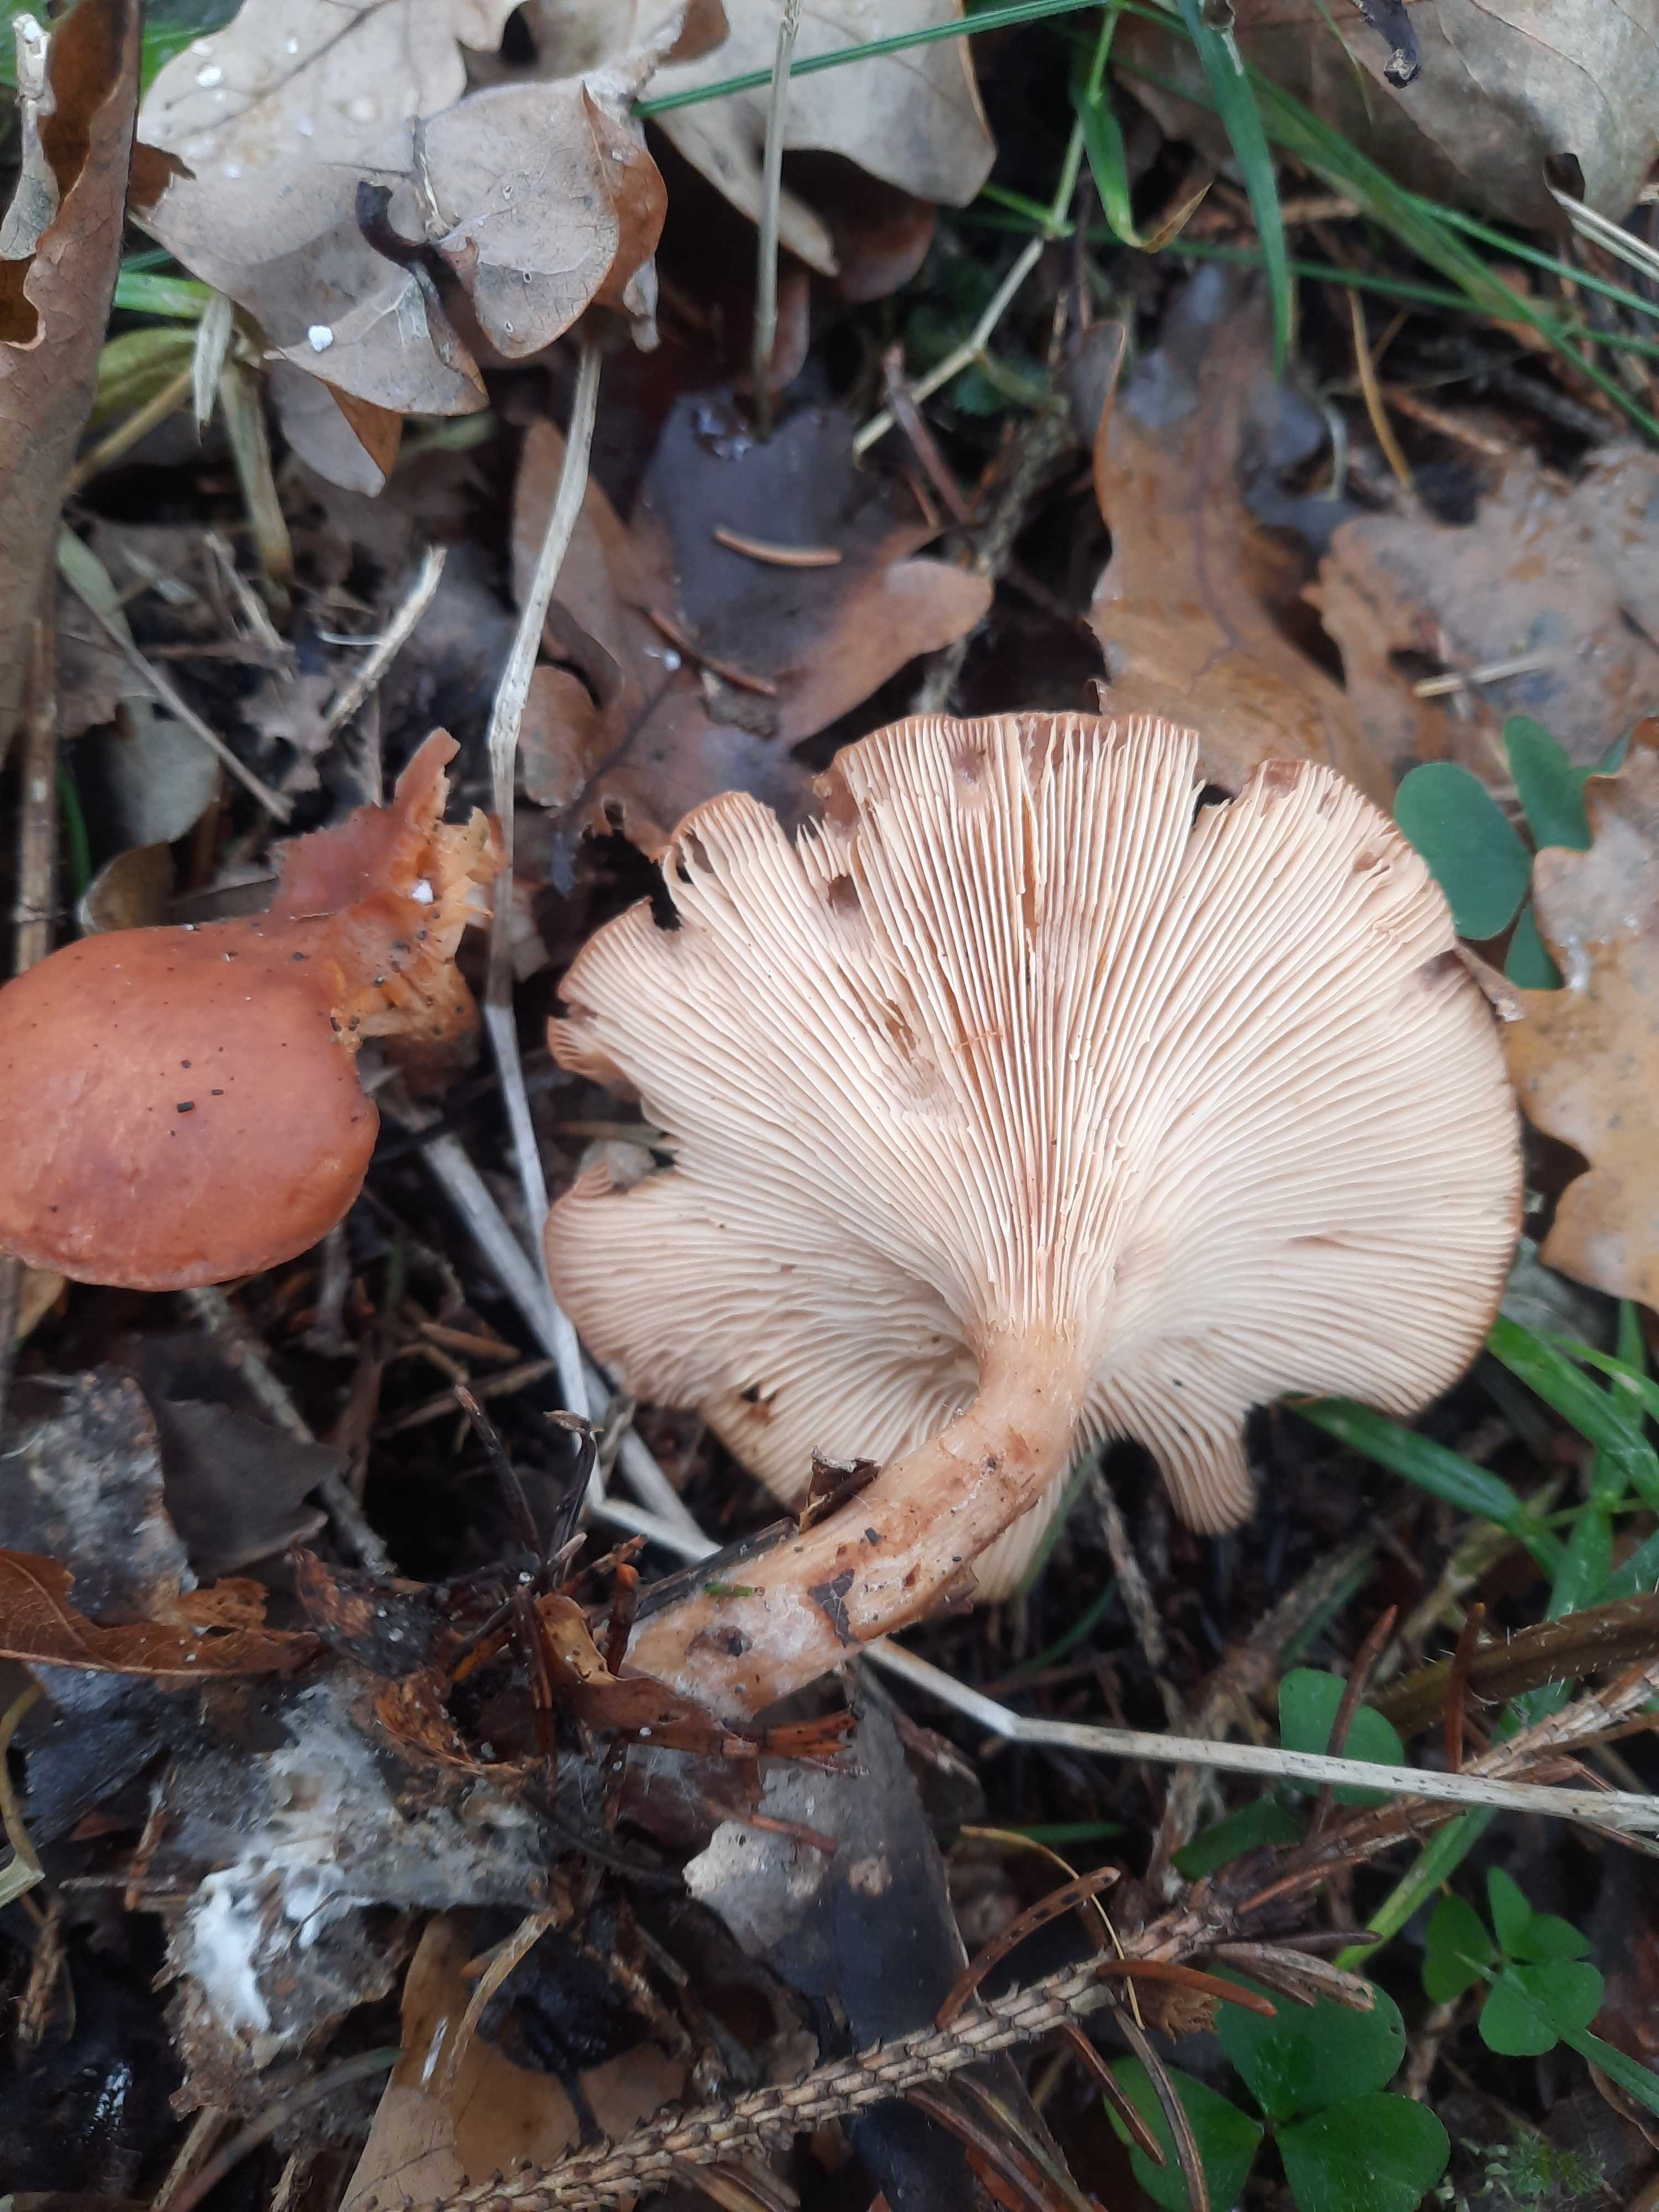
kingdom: Fungi
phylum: Basidiomycota
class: Agaricomycetes
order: Agaricales
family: Tricholomataceae
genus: Paralepista
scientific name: Paralepista flaccida
